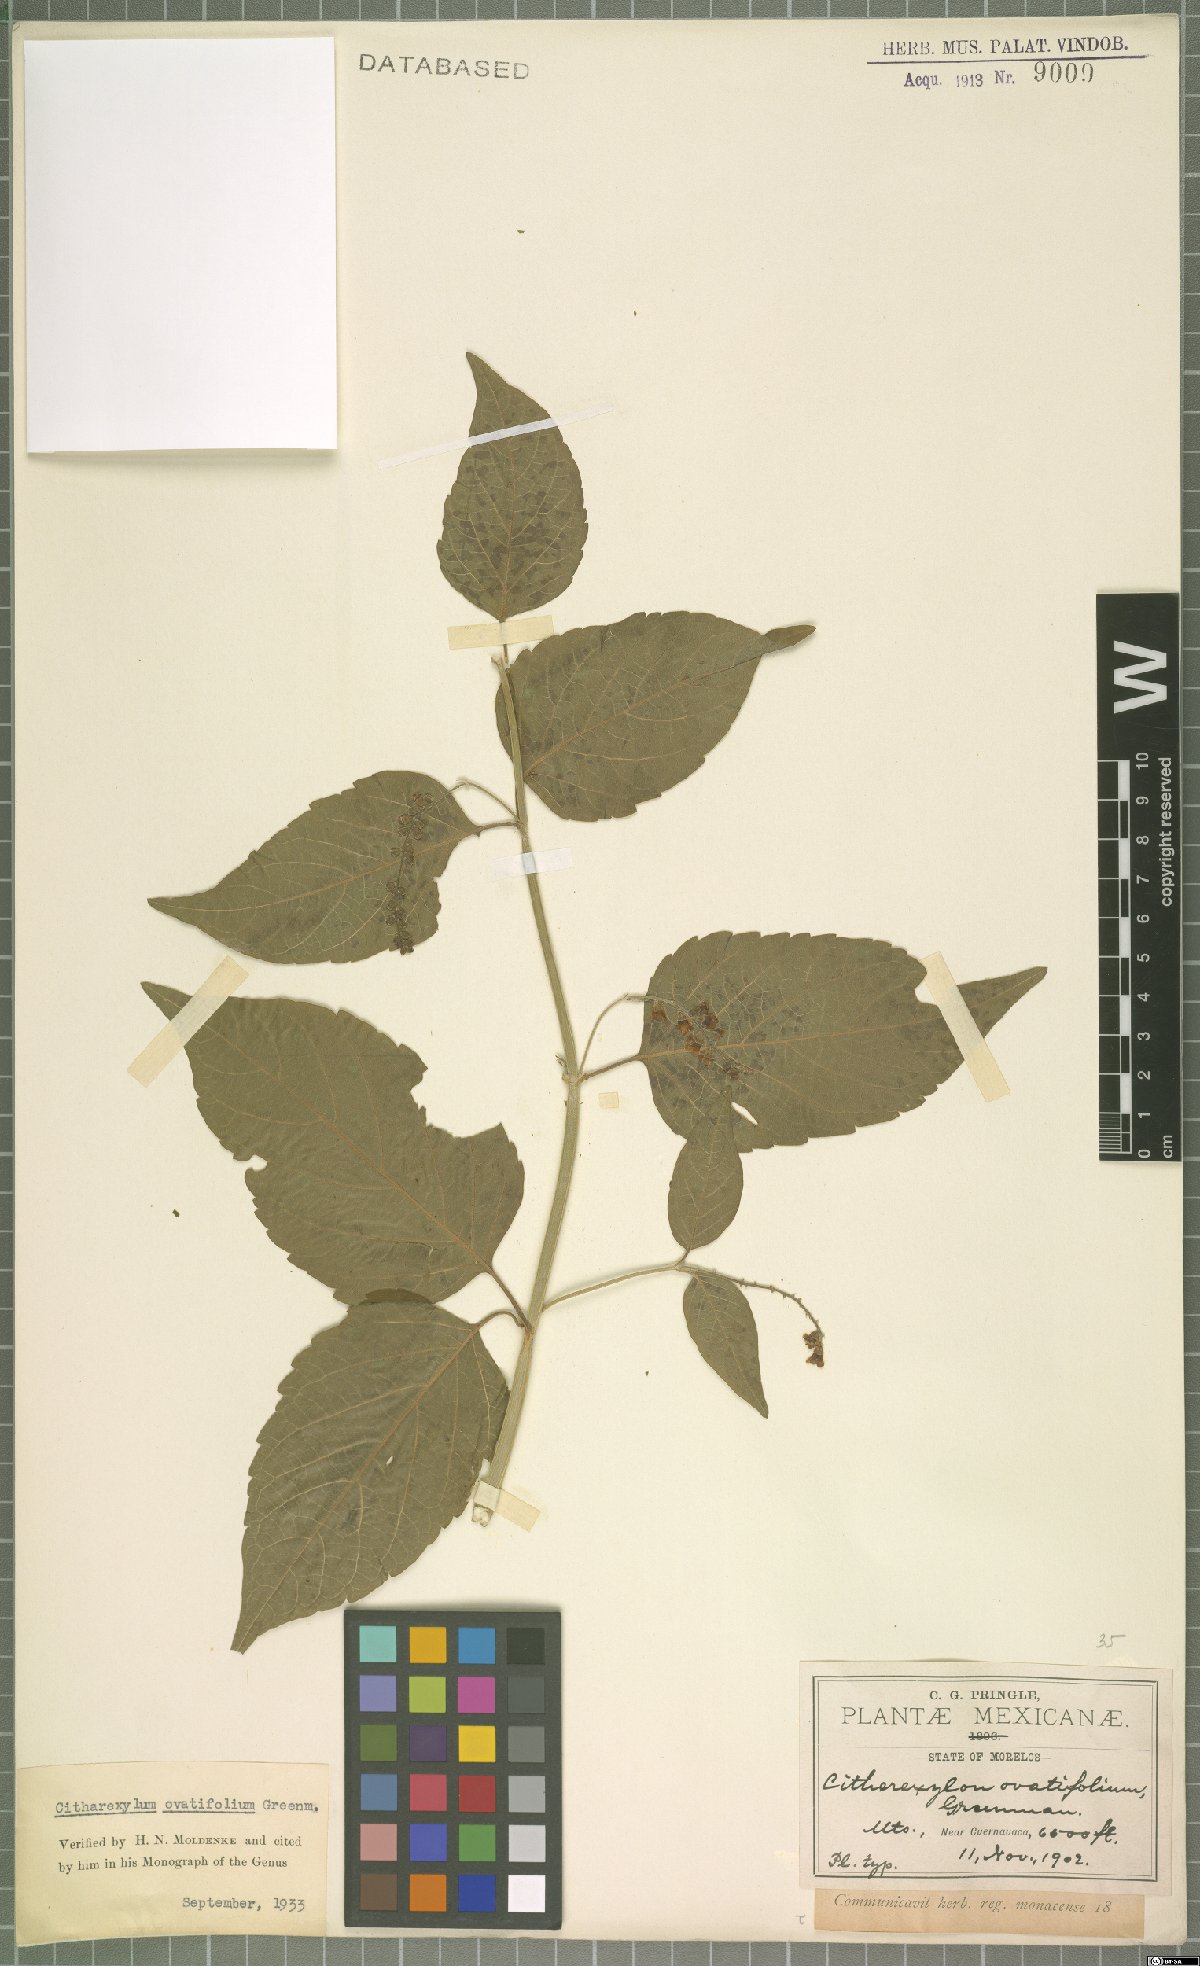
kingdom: Plantae
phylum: Tracheophyta
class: Magnoliopsida
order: Lamiales
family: Verbenaceae
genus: Citharexylum
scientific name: Citharexylum ovatifolium
